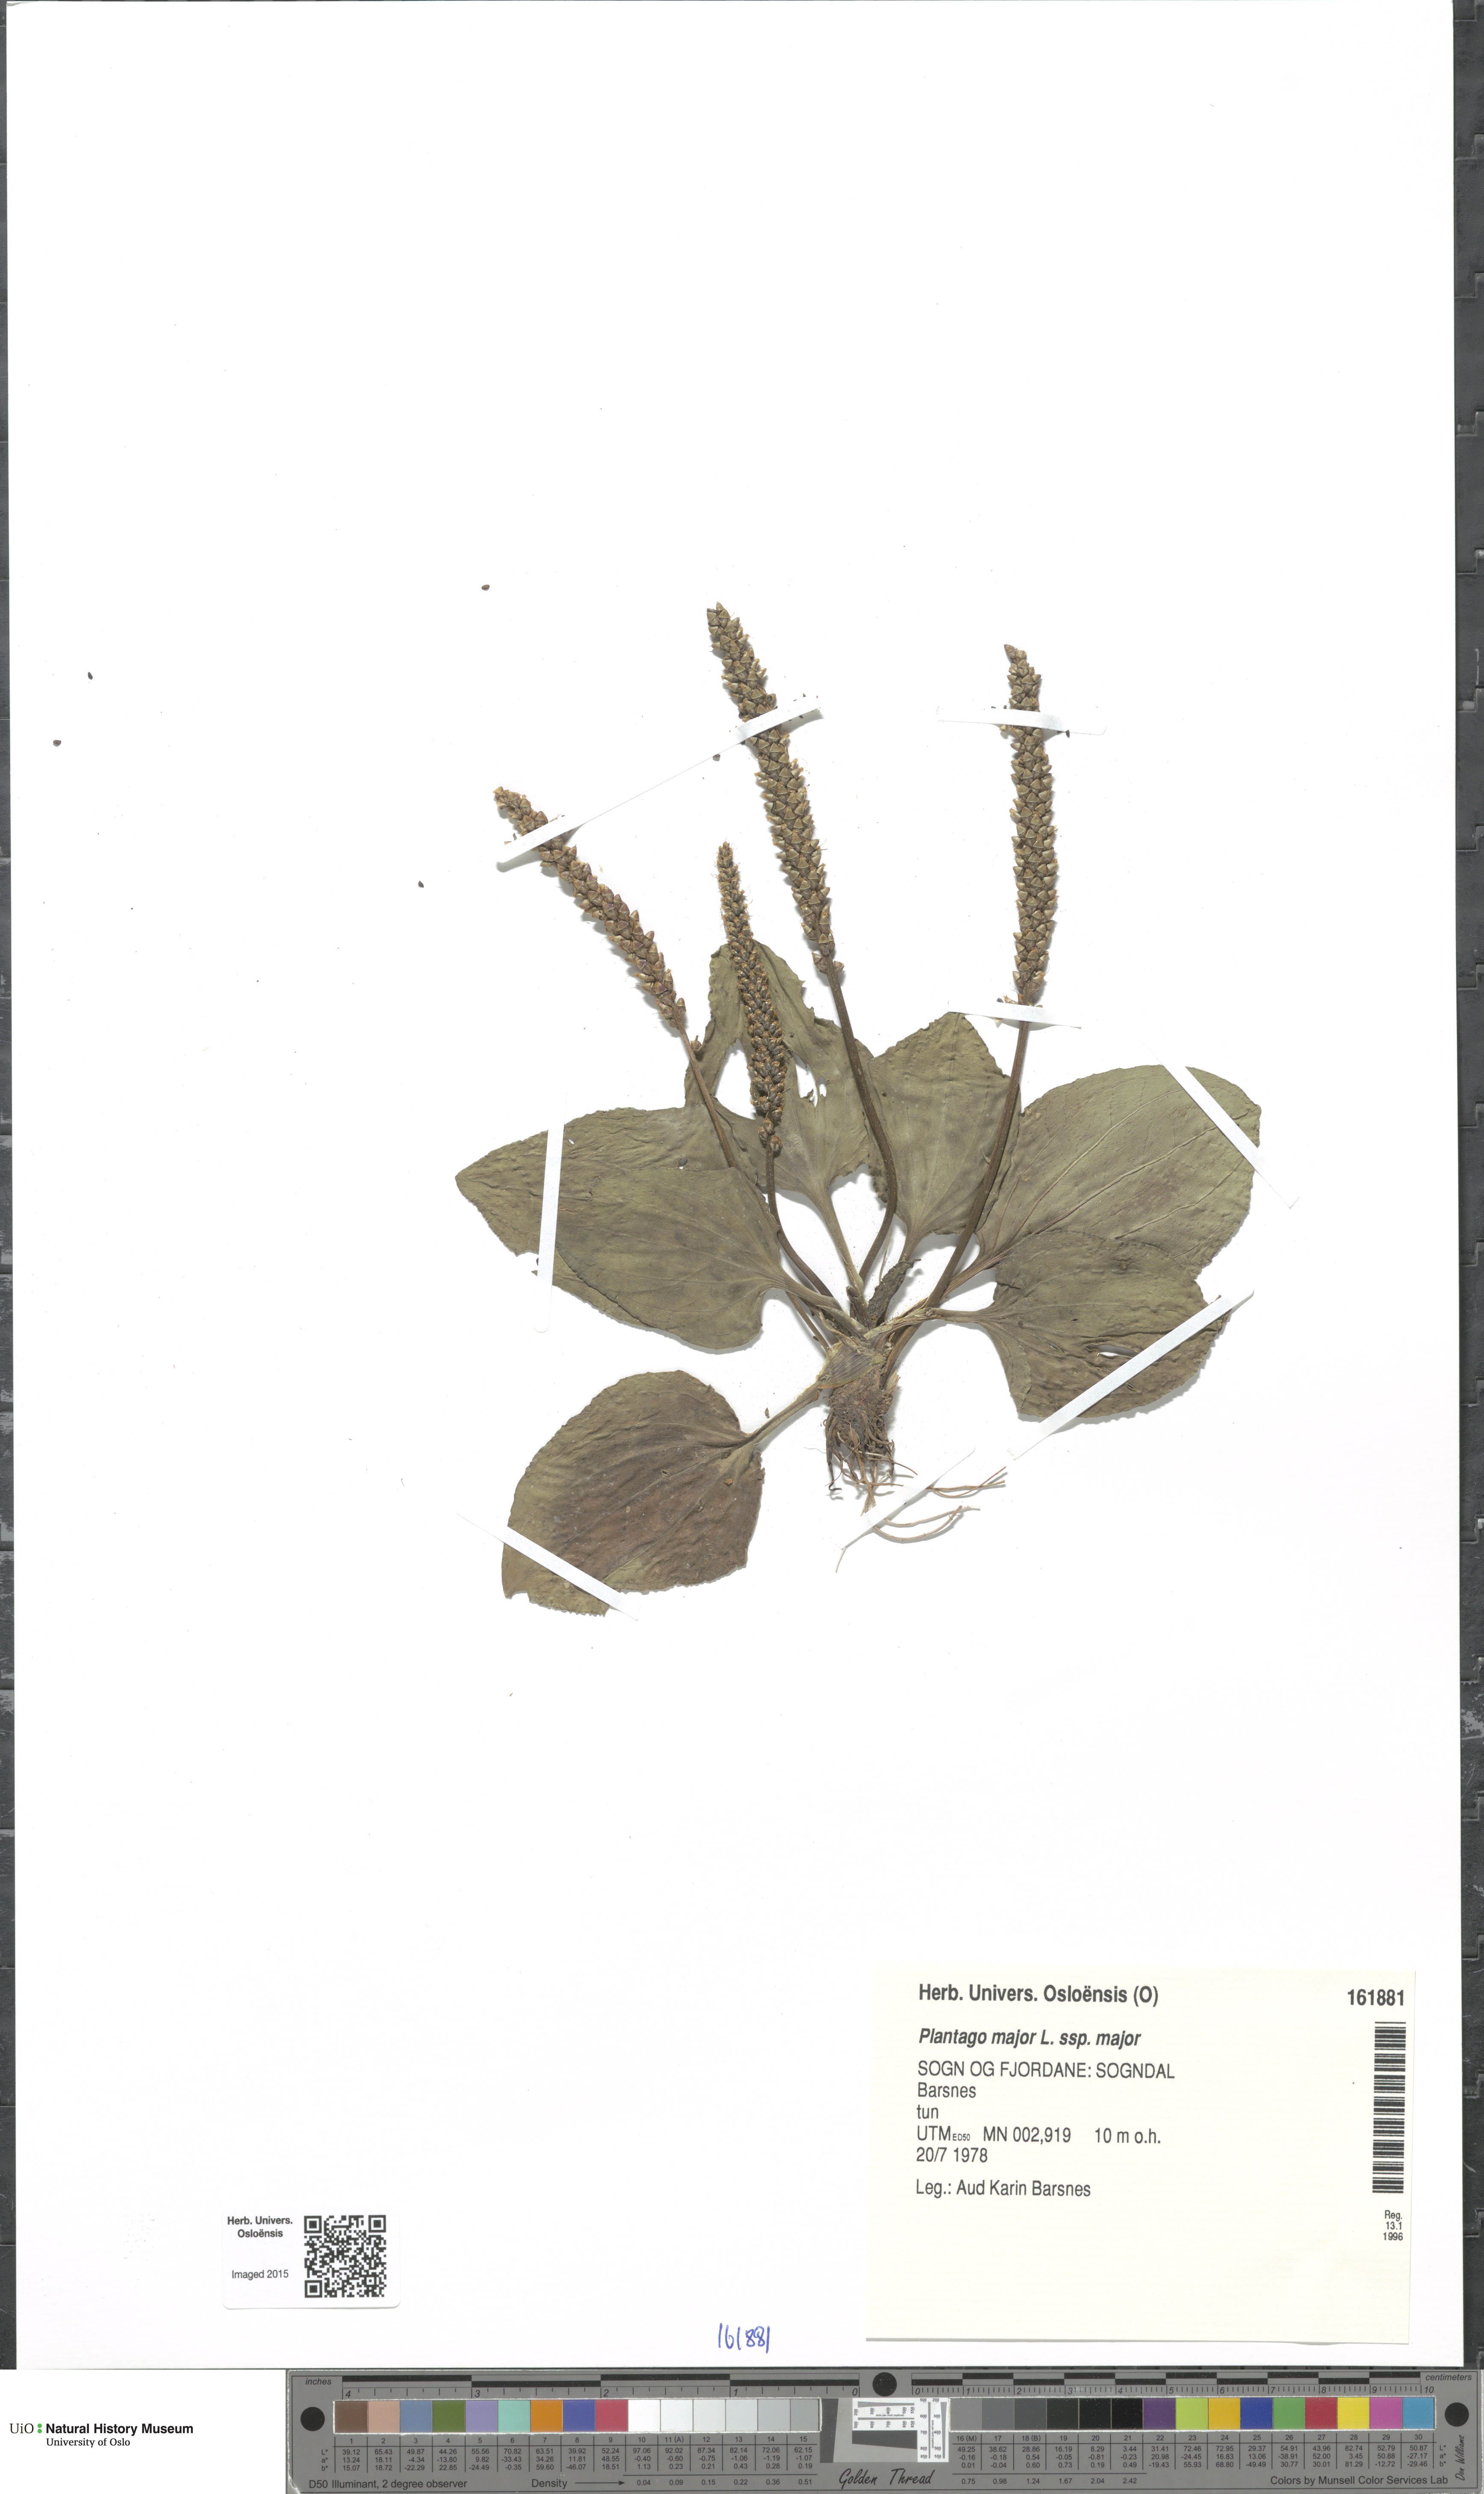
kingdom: Plantae
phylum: Tracheophyta
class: Magnoliopsida
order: Lamiales
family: Plantaginaceae
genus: Plantago
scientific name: Plantago major
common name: Common plantain
